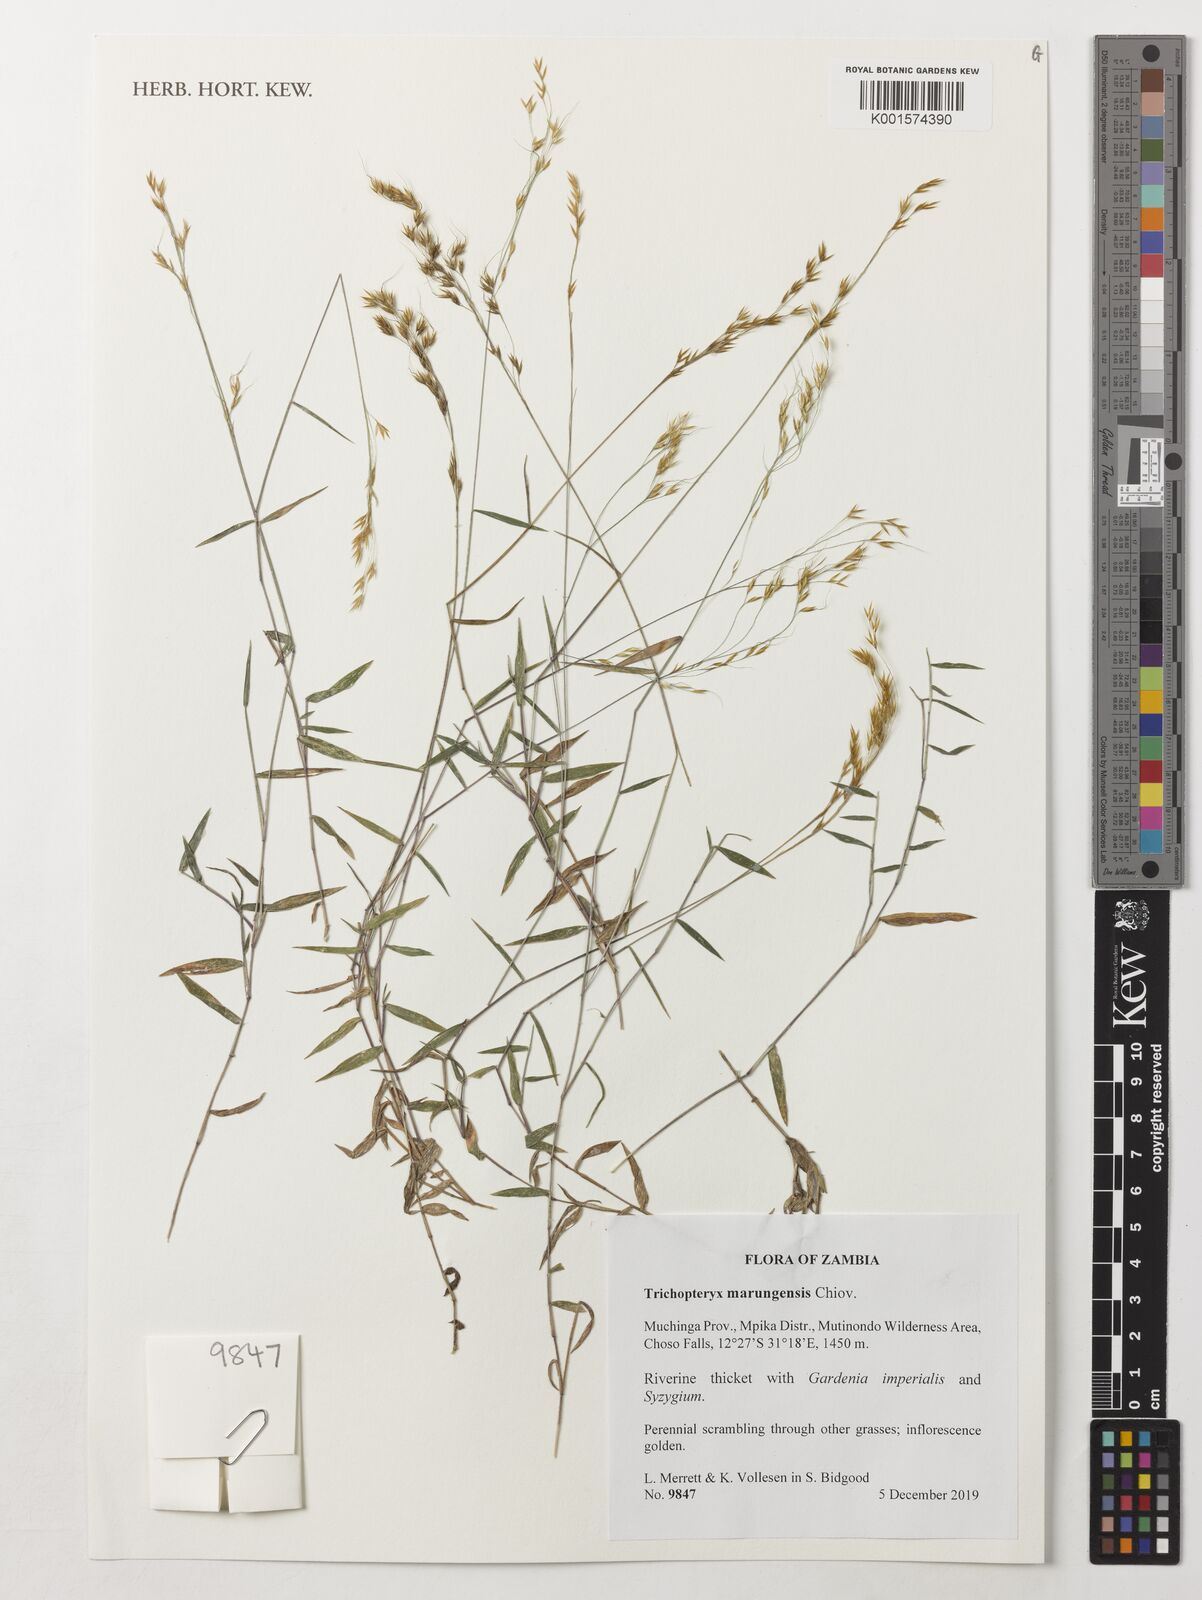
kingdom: Plantae
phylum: Tracheophyta
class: Liliopsida
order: Poales
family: Poaceae
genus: Trichopteryx
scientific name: Trichopteryx marungensis
